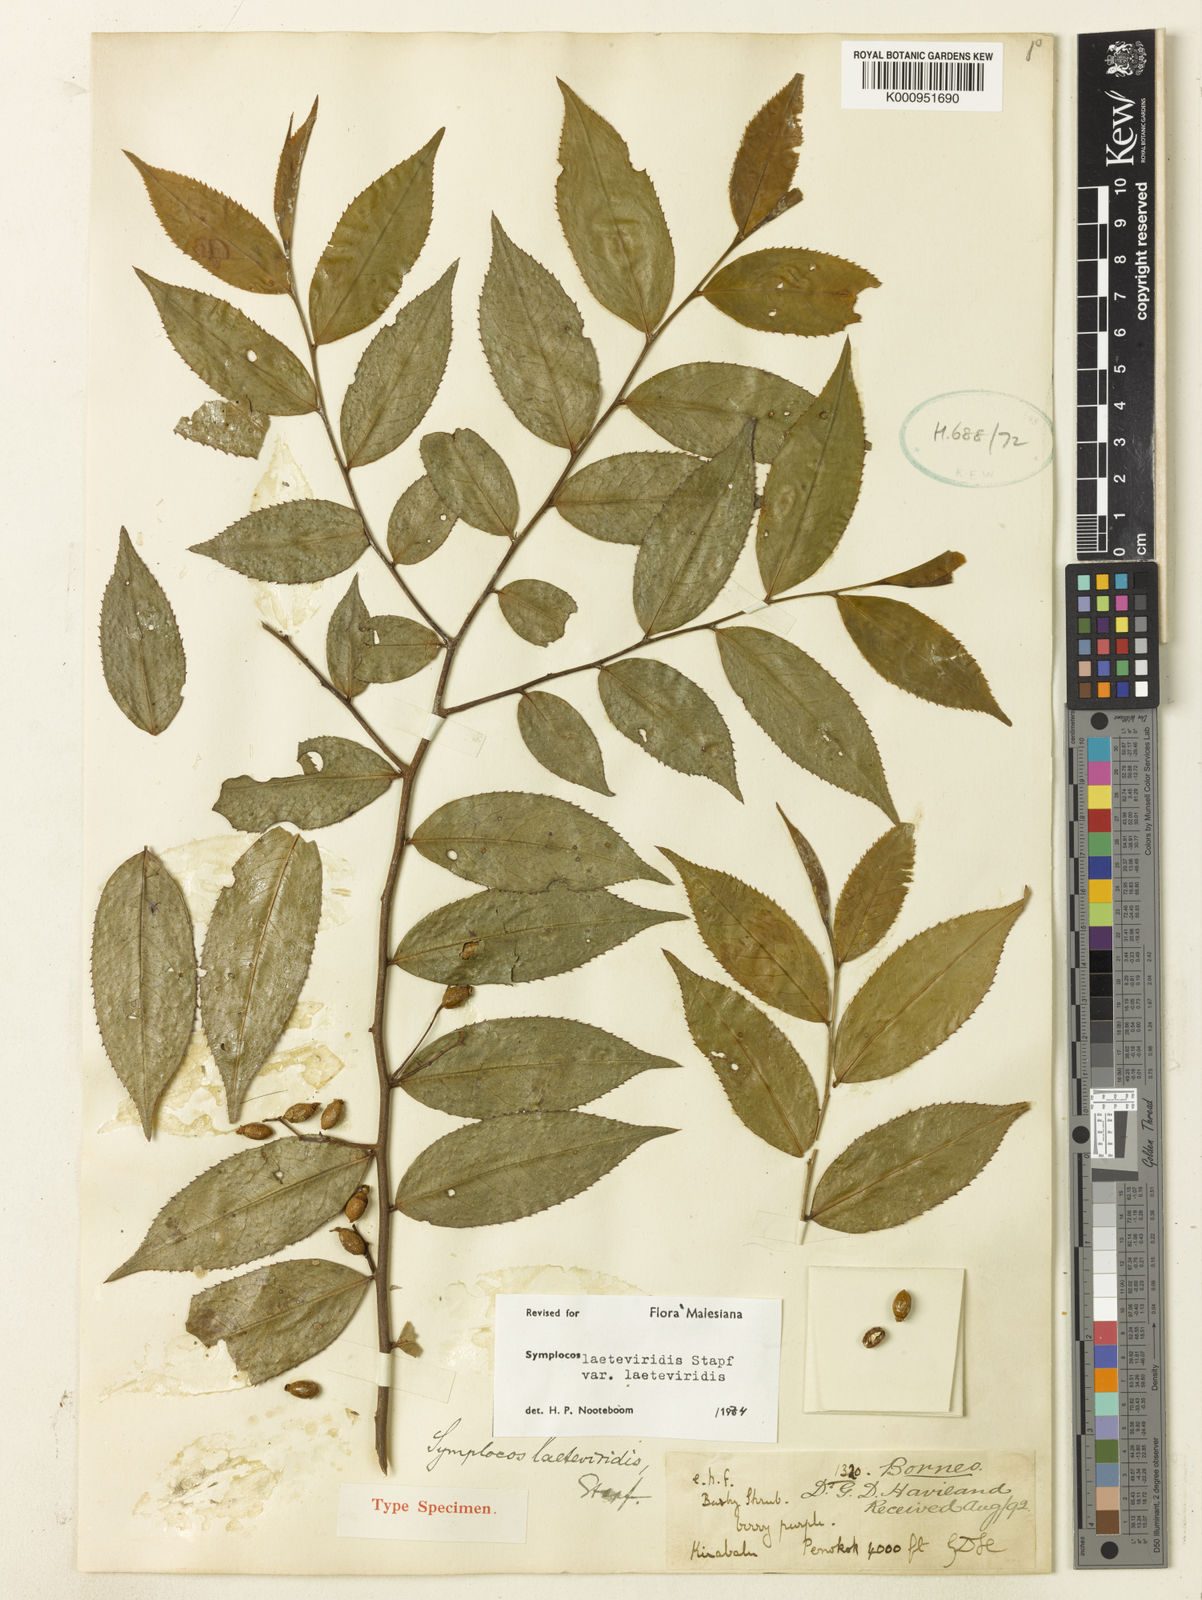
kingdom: Plantae
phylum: Tracheophyta
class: Magnoliopsida
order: Ericales
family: Symplocaceae
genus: Symplocos
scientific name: Symplocos laeteviridis
